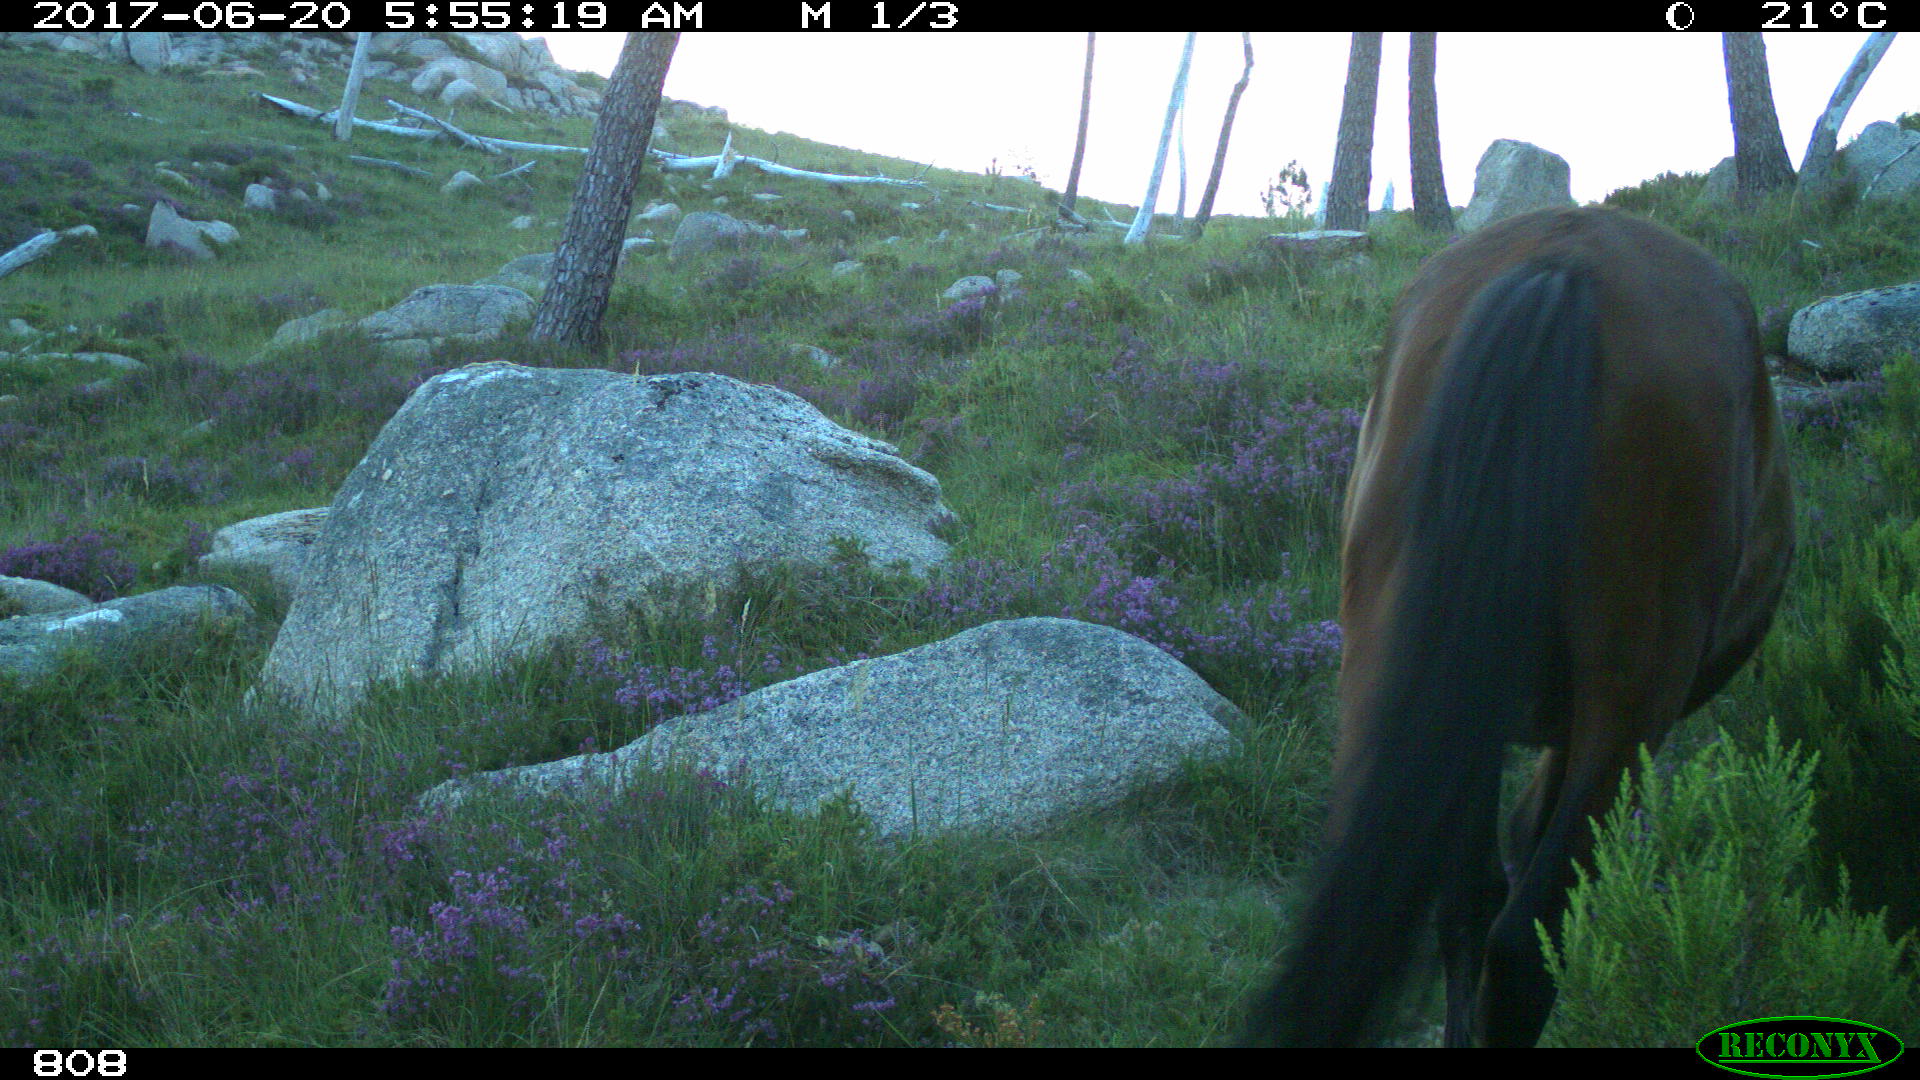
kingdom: Animalia
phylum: Chordata
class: Mammalia
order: Perissodactyla
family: Equidae
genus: Equus
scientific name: Equus caballus
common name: Horse
